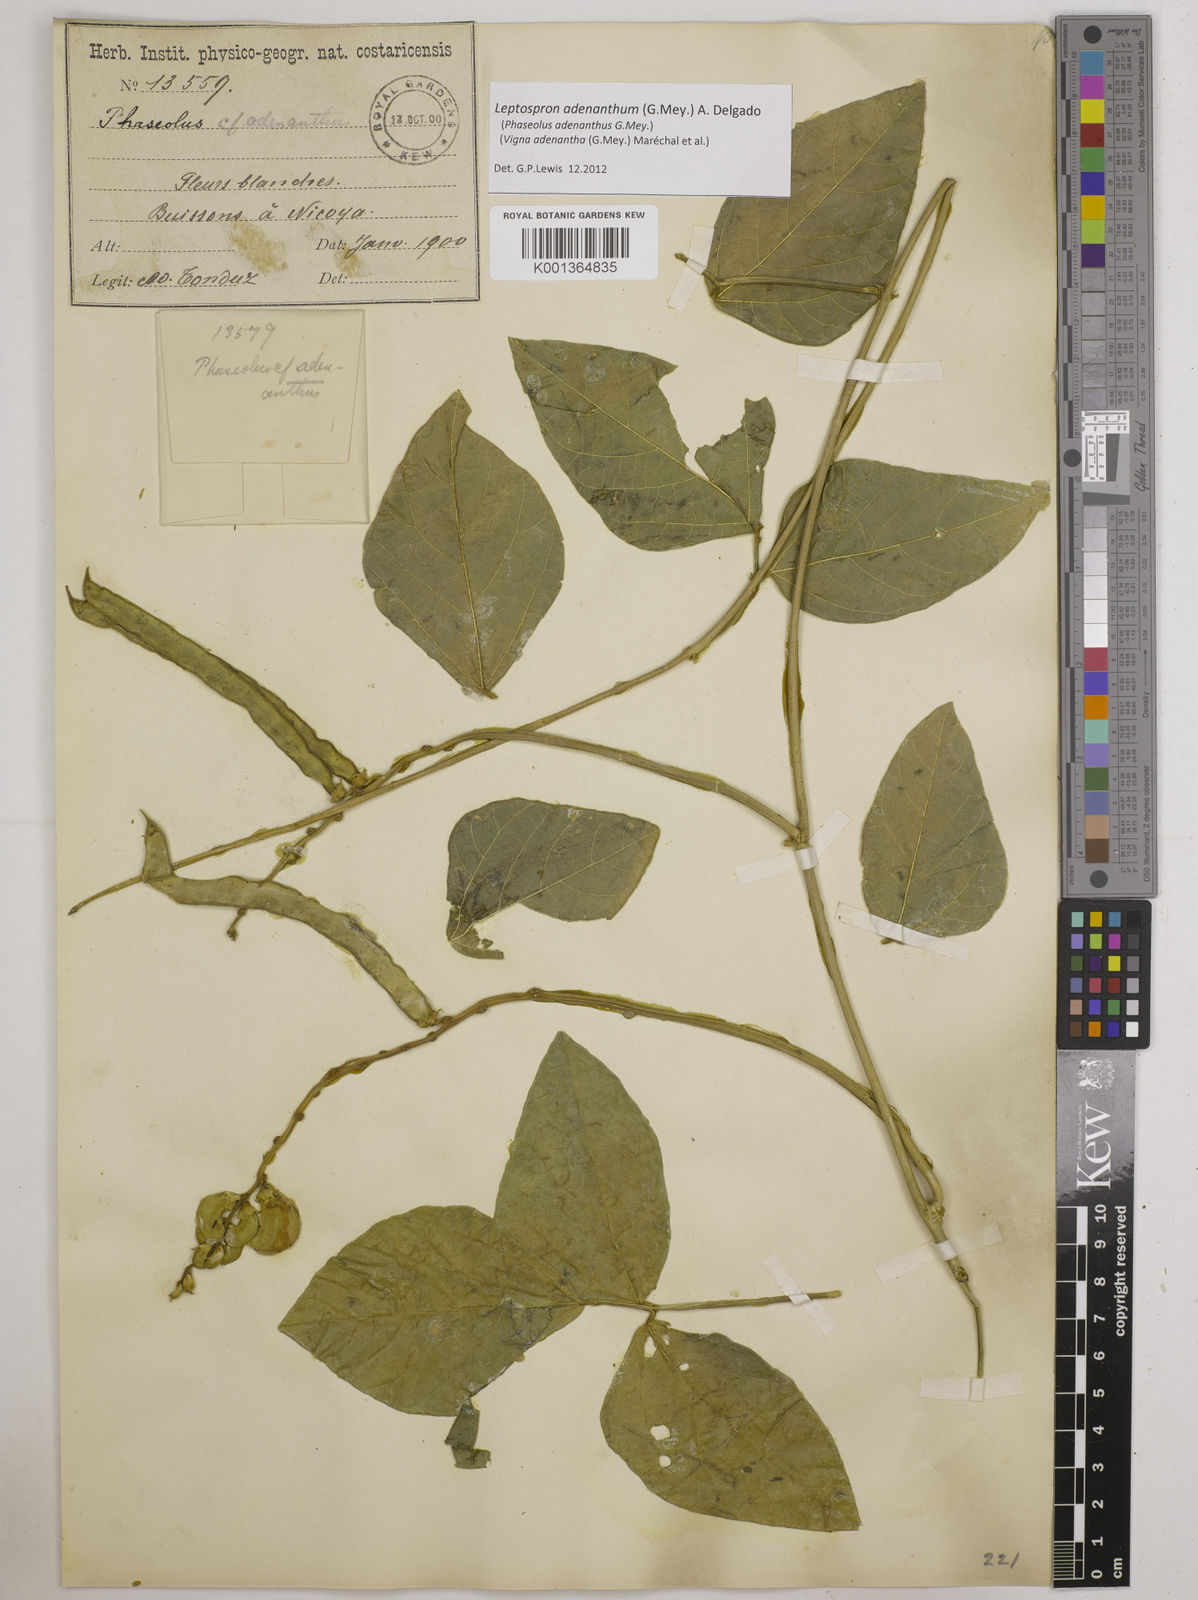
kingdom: Plantae
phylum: Tracheophyta
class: Magnoliopsida
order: Fabales
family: Fabaceae
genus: Leptospron
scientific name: Leptospron adenanthum
